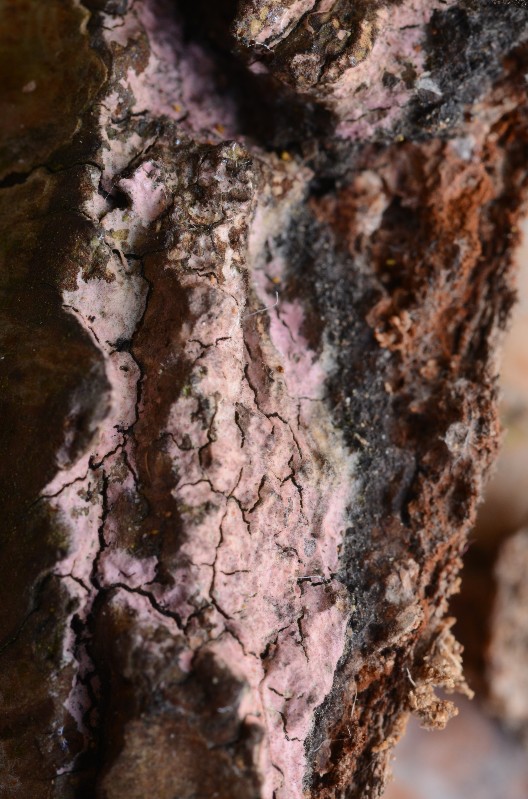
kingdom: Fungi
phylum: Basidiomycota
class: Agaricomycetes
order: Cantharellales
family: Tulasnellaceae
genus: Tulasnella
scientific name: Tulasnella violea
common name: violet ballonhinde
